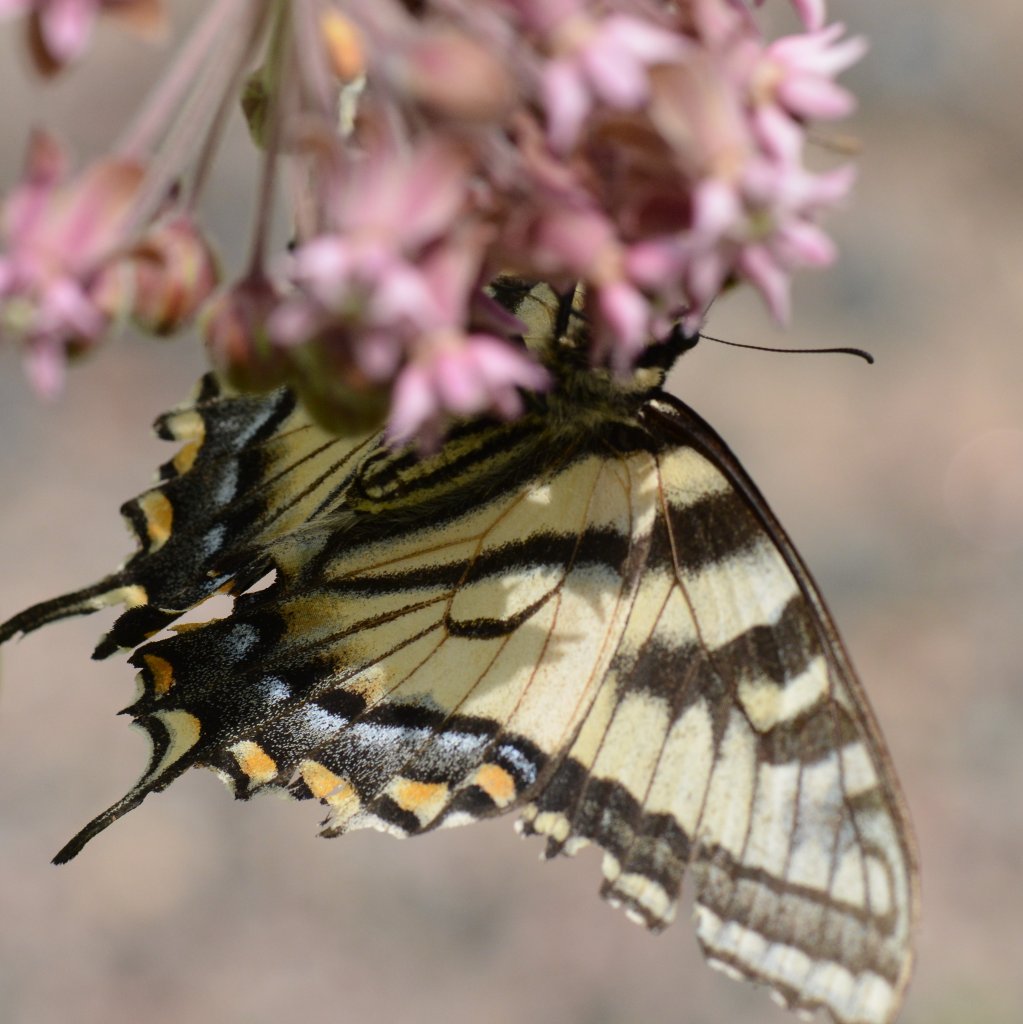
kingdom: Animalia
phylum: Arthropoda
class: Insecta
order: Lepidoptera
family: Papilionidae
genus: Pterourus
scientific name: Pterourus canadensis
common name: Canadian Tiger Swallowtail
